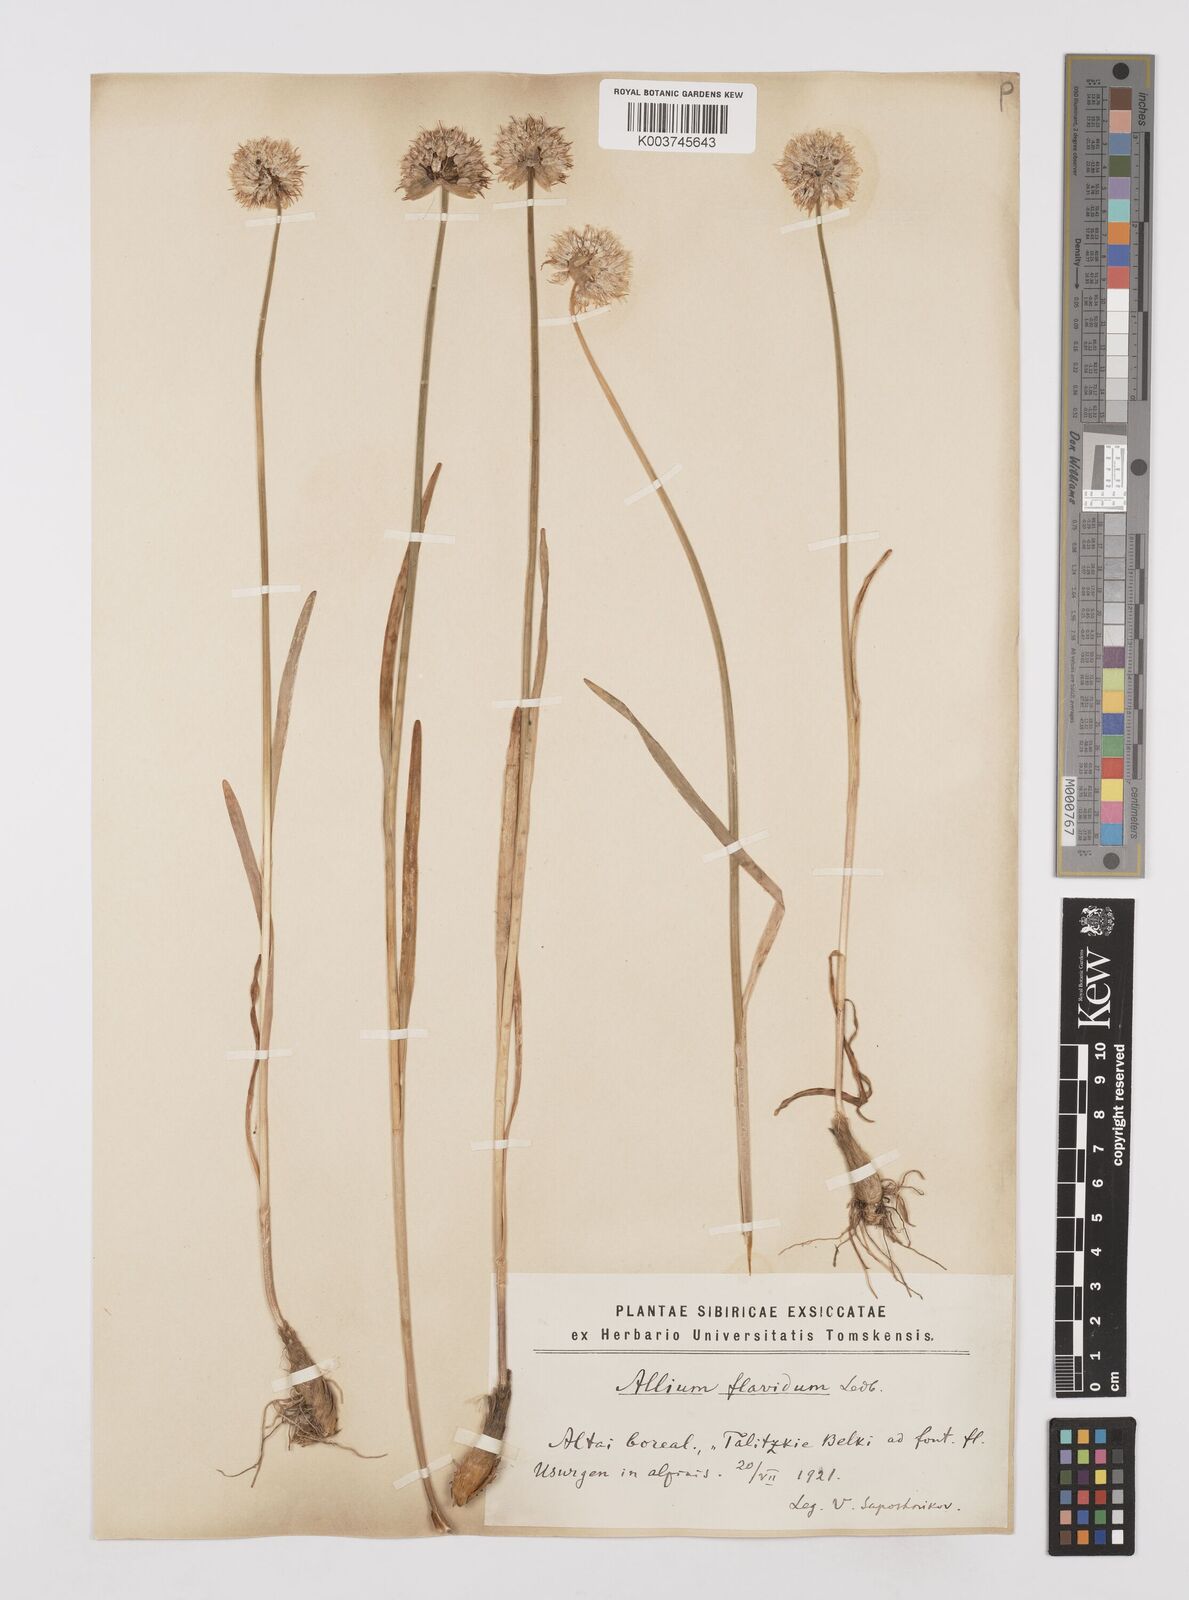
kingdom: Plantae
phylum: Tracheophyta
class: Liliopsida
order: Asparagales
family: Amaryllidaceae
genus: Allium
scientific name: Allium textile
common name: Prairie onion
